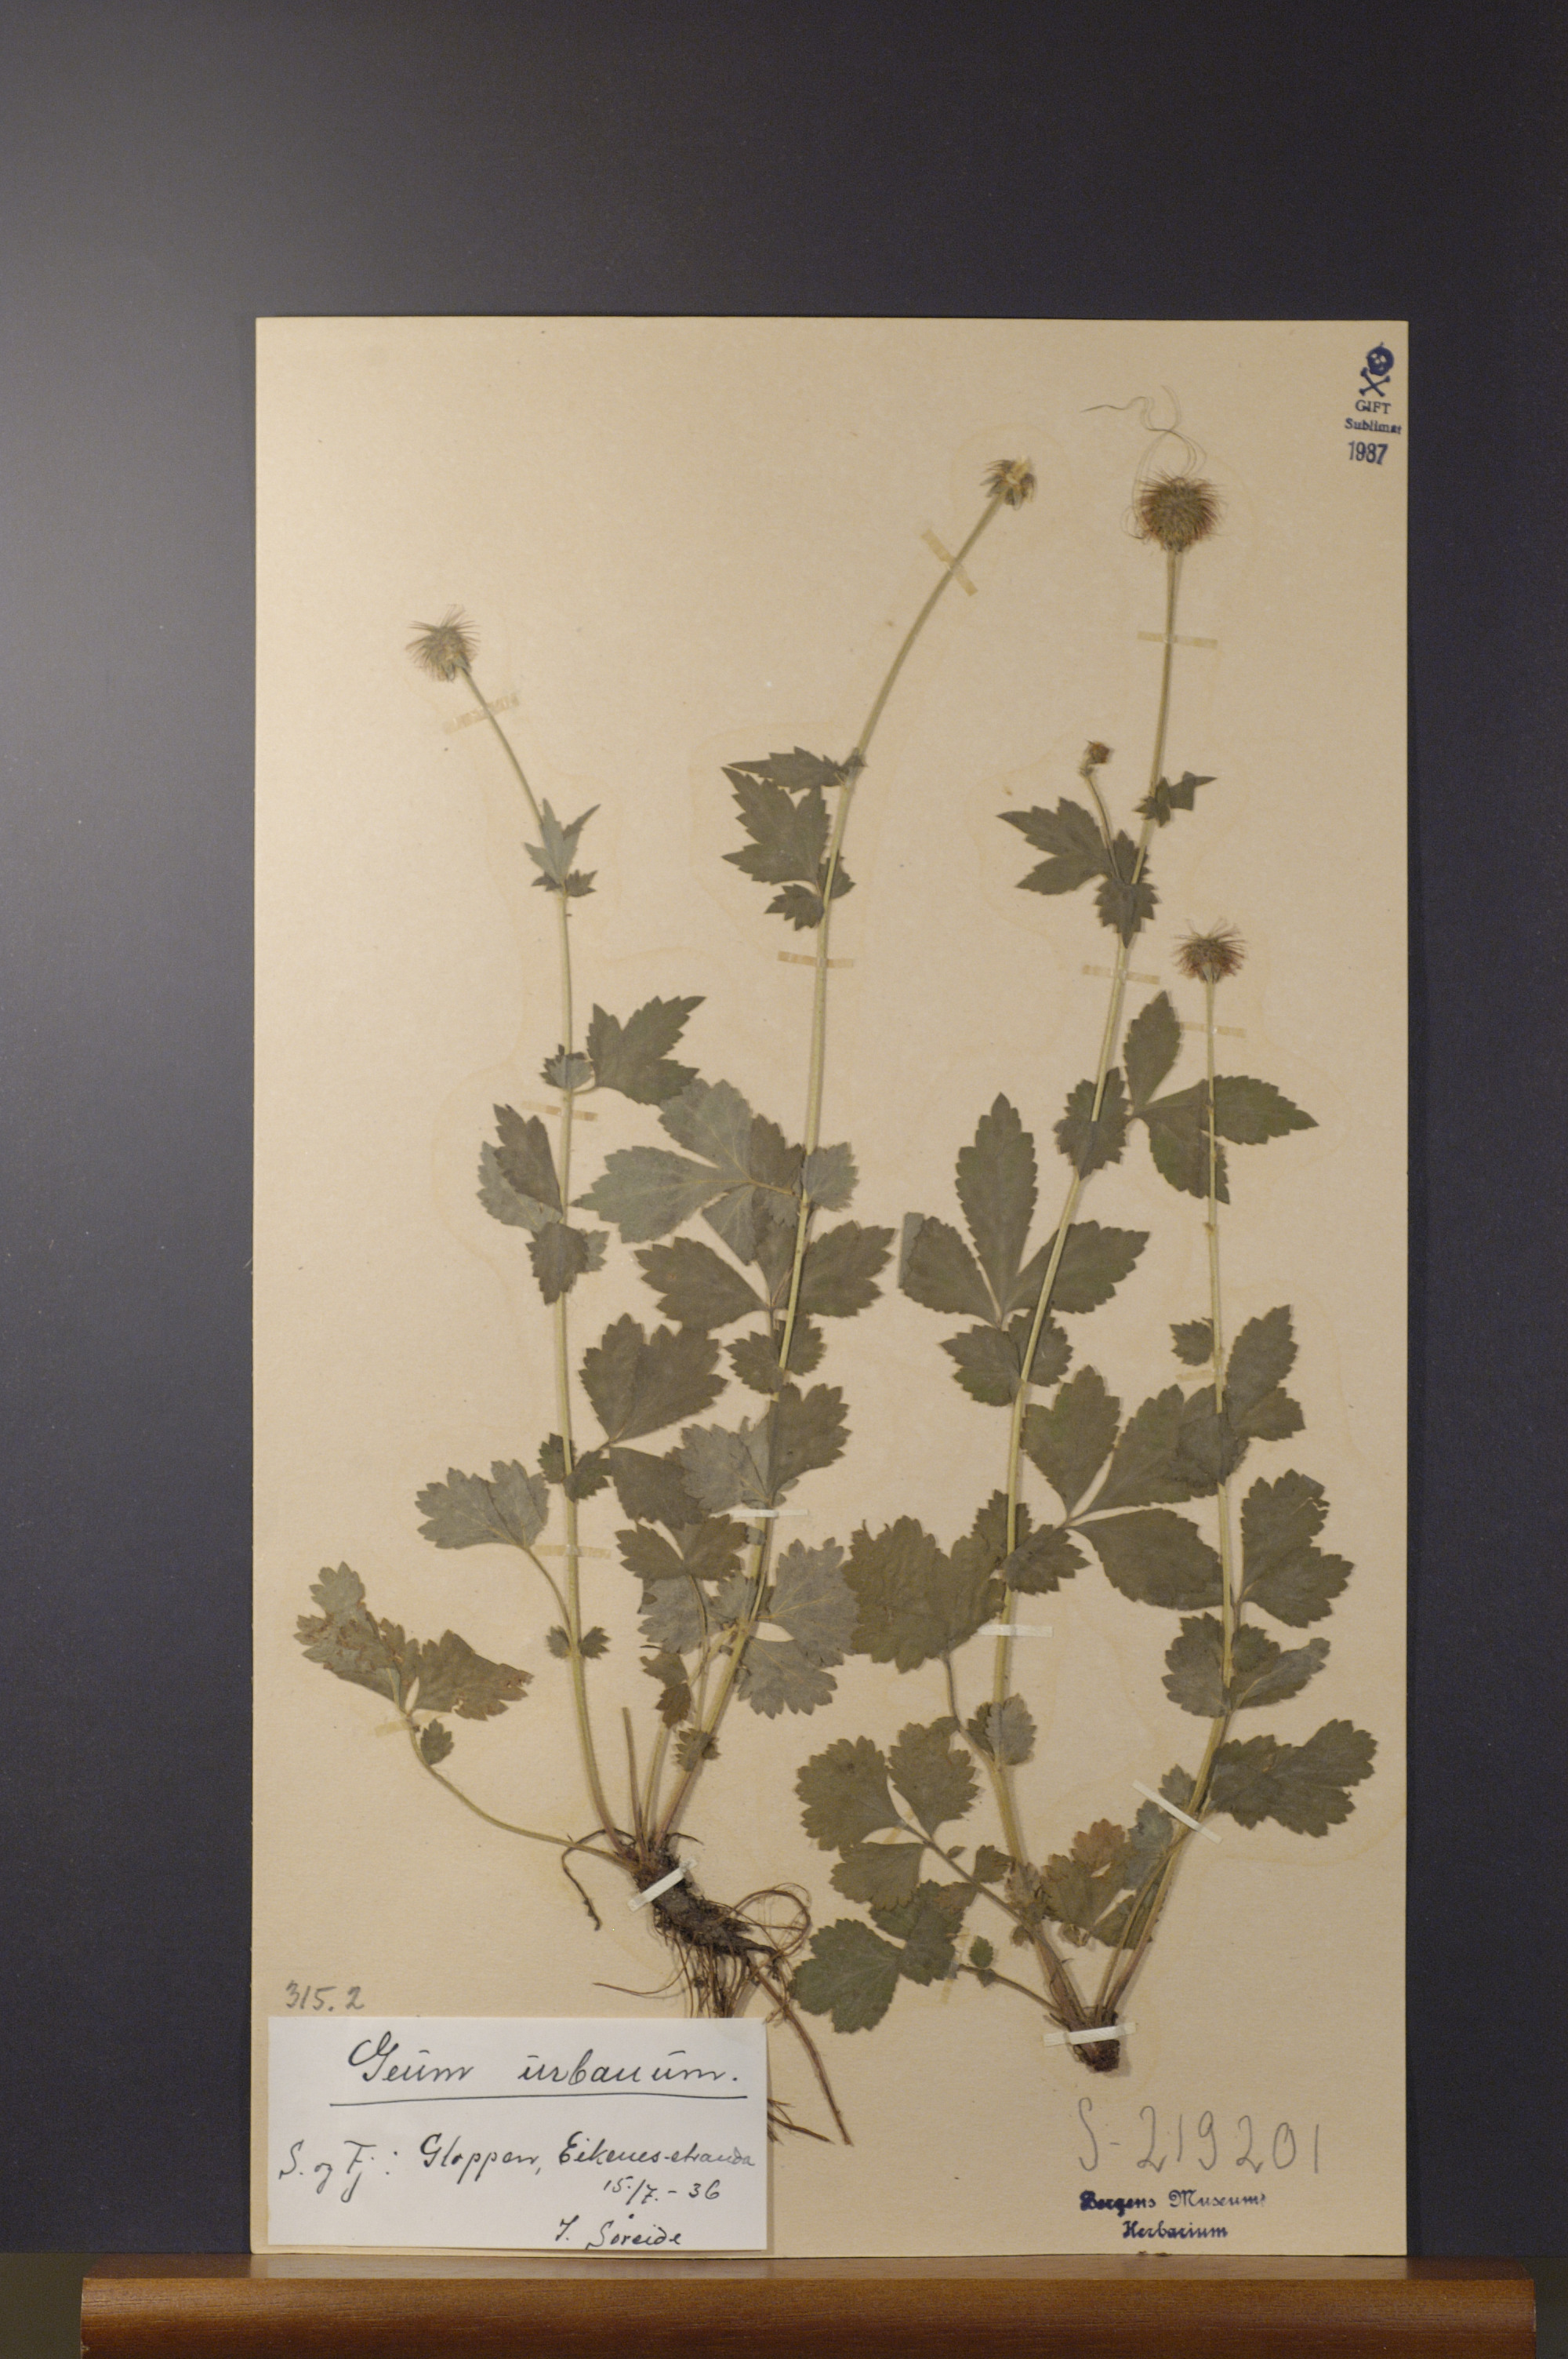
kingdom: Plantae
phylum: Tracheophyta
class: Magnoliopsida
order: Rosales
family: Rosaceae
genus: Geum
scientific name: Geum urbanum
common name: Wood avens
